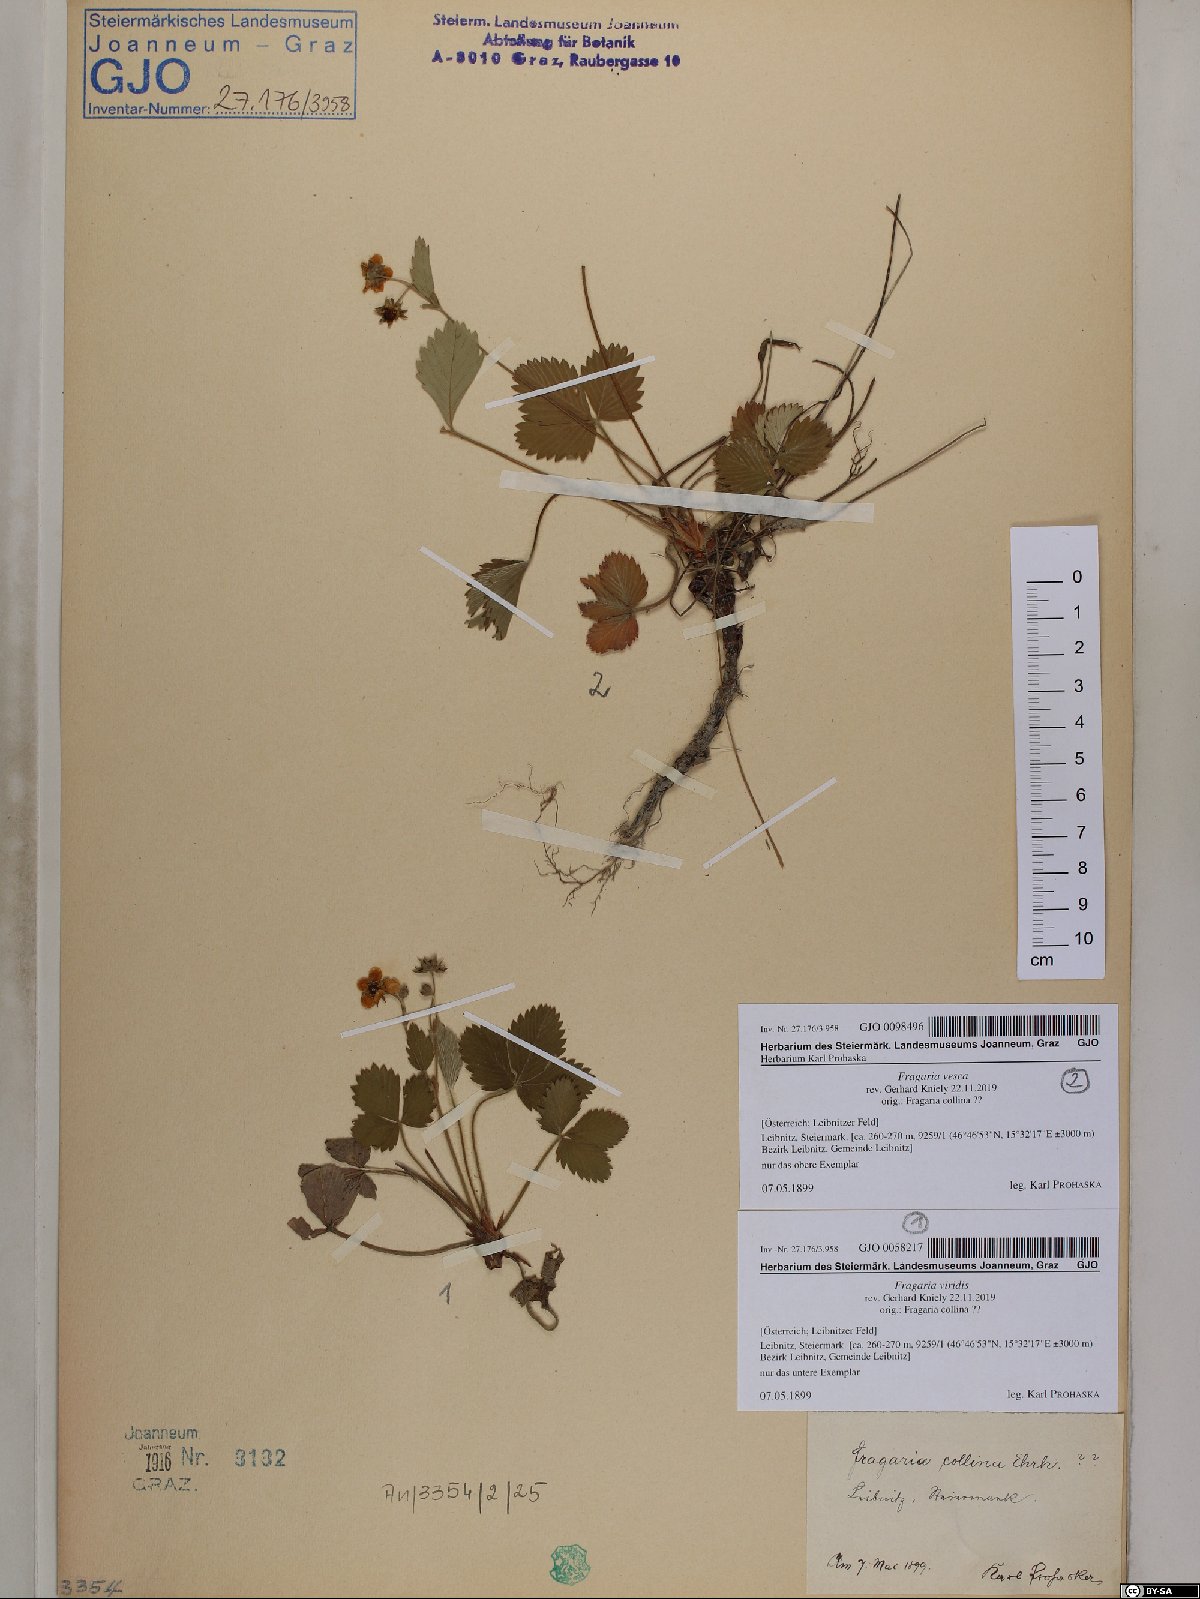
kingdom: Plantae
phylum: Tracheophyta
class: Magnoliopsida
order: Rosales
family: Rosaceae
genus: Fragaria
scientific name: Fragaria vesca
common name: Wild strawberry
